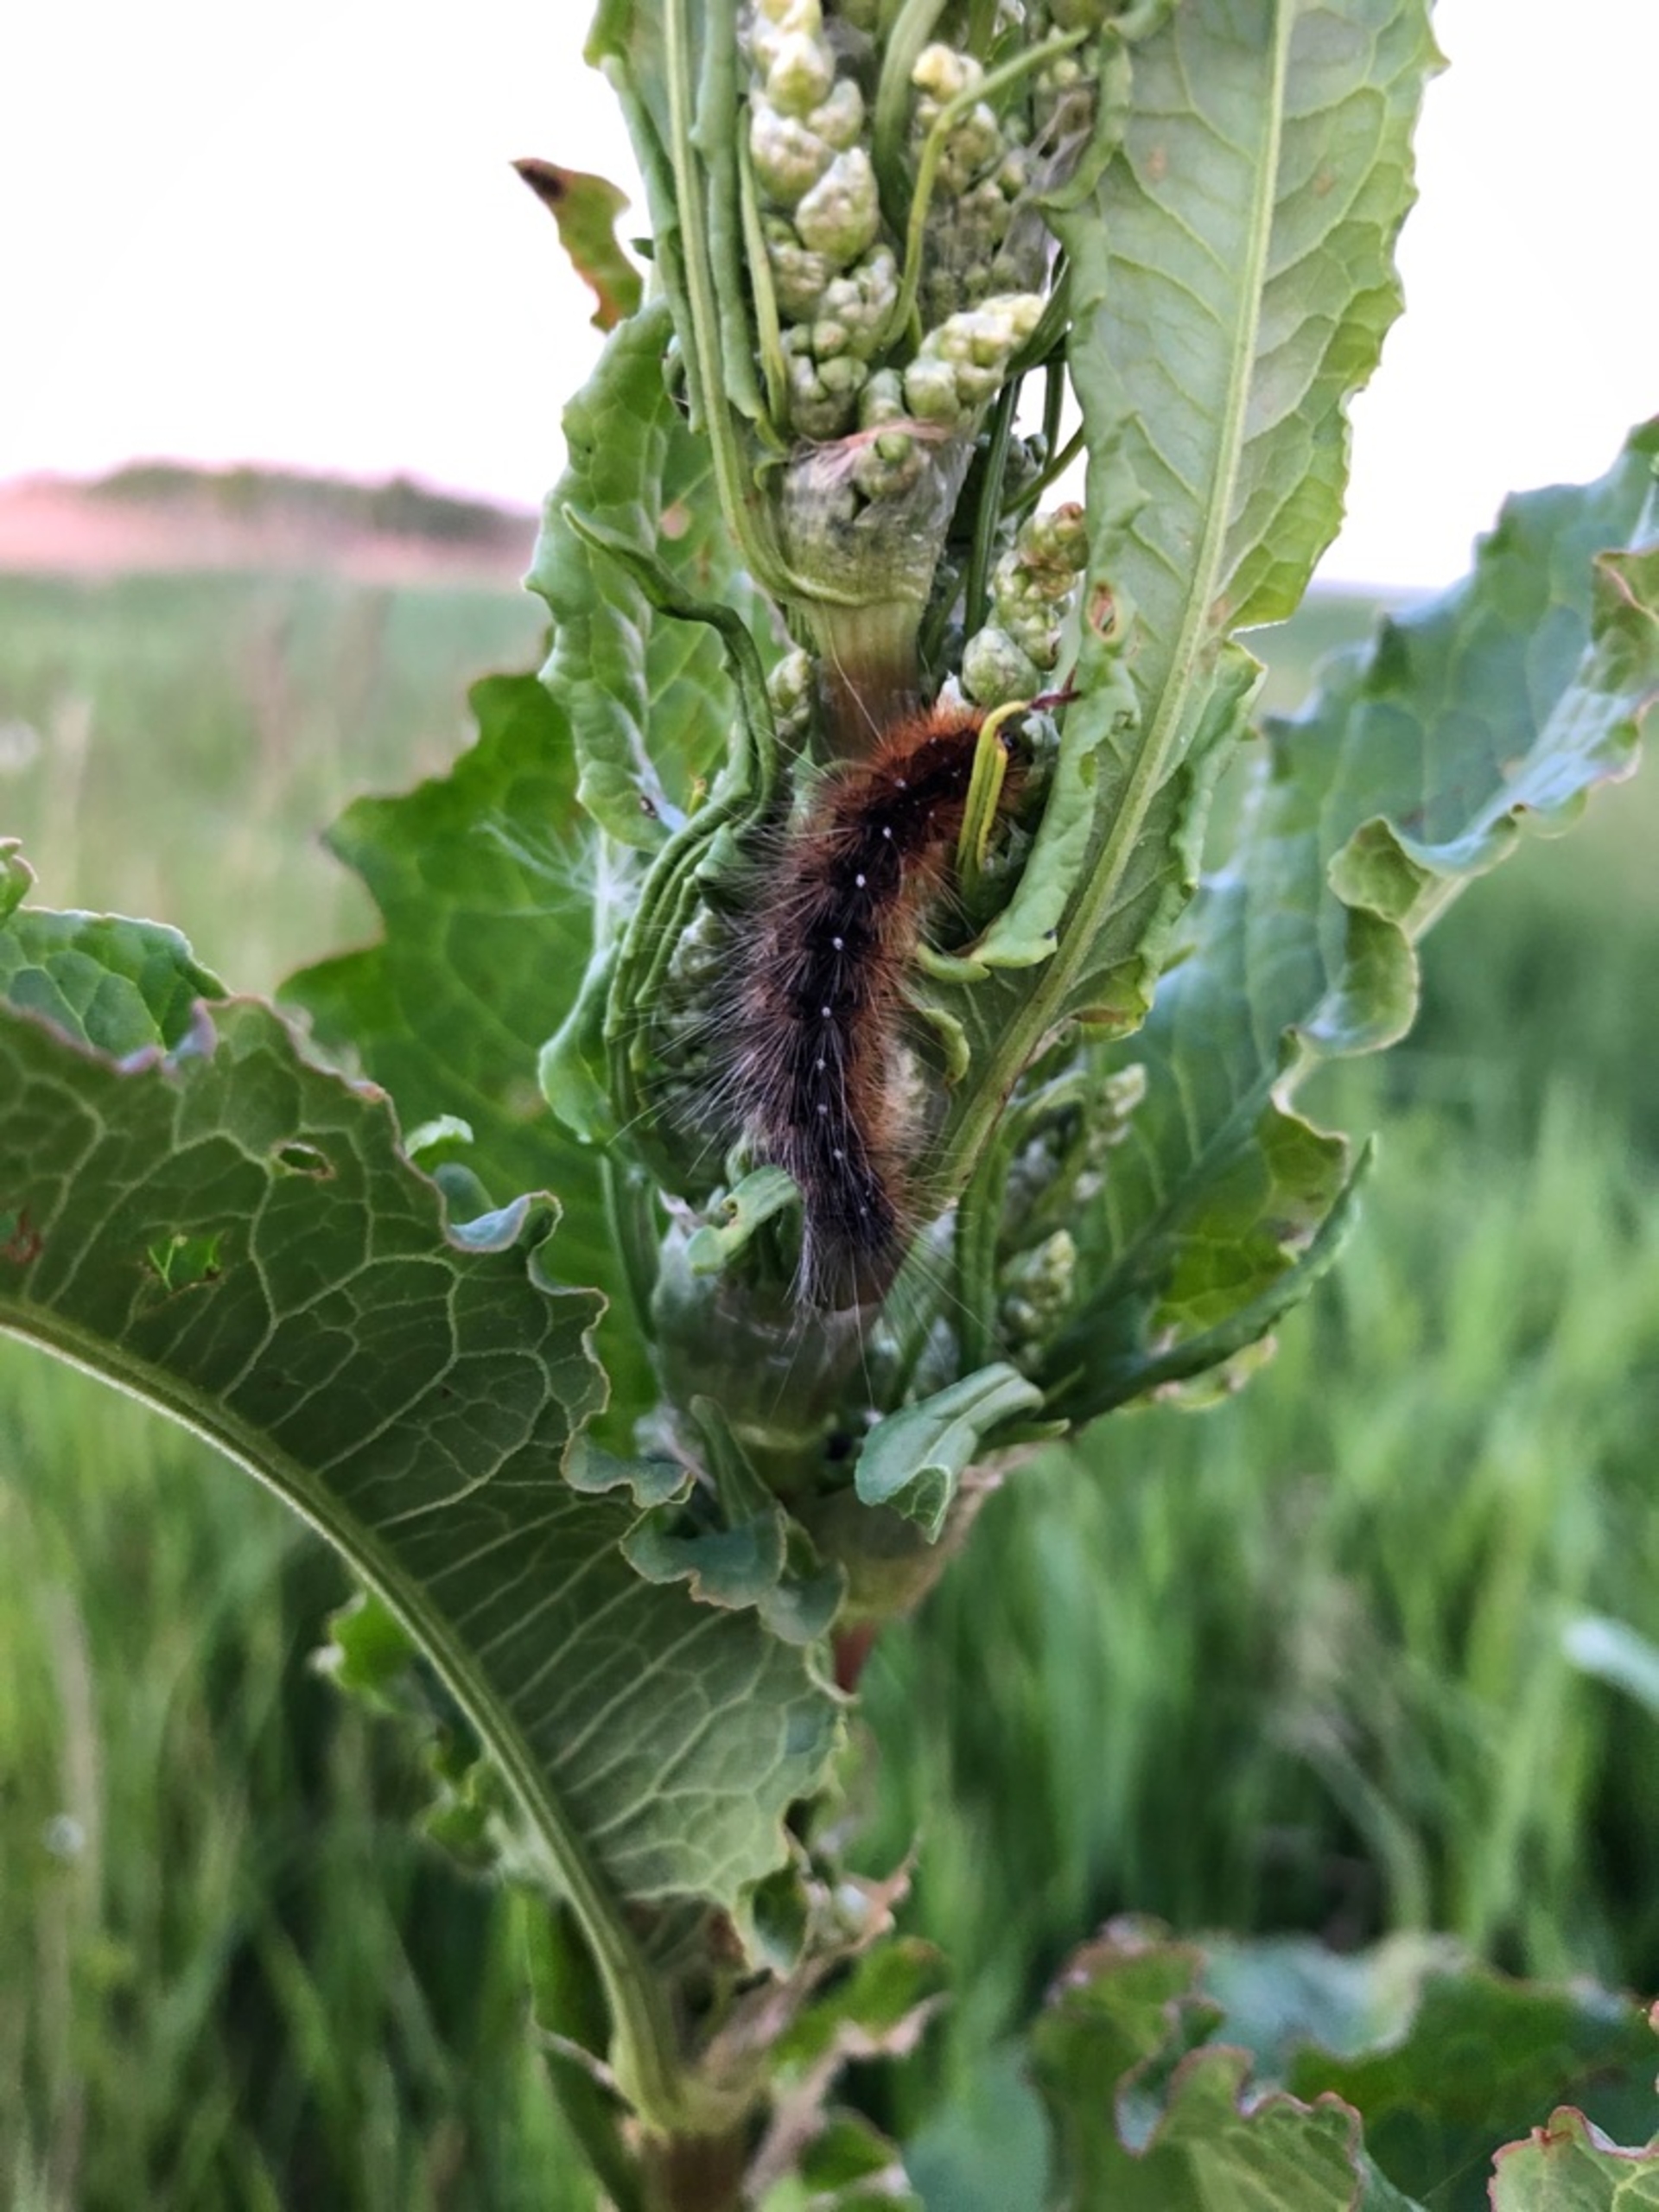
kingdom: Animalia
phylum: Arthropoda
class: Insecta
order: Lepidoptera
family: Erebidae
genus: Arctia
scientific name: Arctia caja
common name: Brun bjørn
